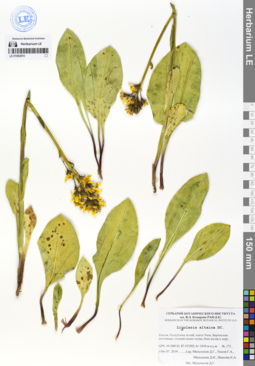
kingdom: Plantae
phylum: Tracheophyta
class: Magnoliopsida
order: Asterales
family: Asteraceae
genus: Ligularia
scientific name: Ligularia altaica
